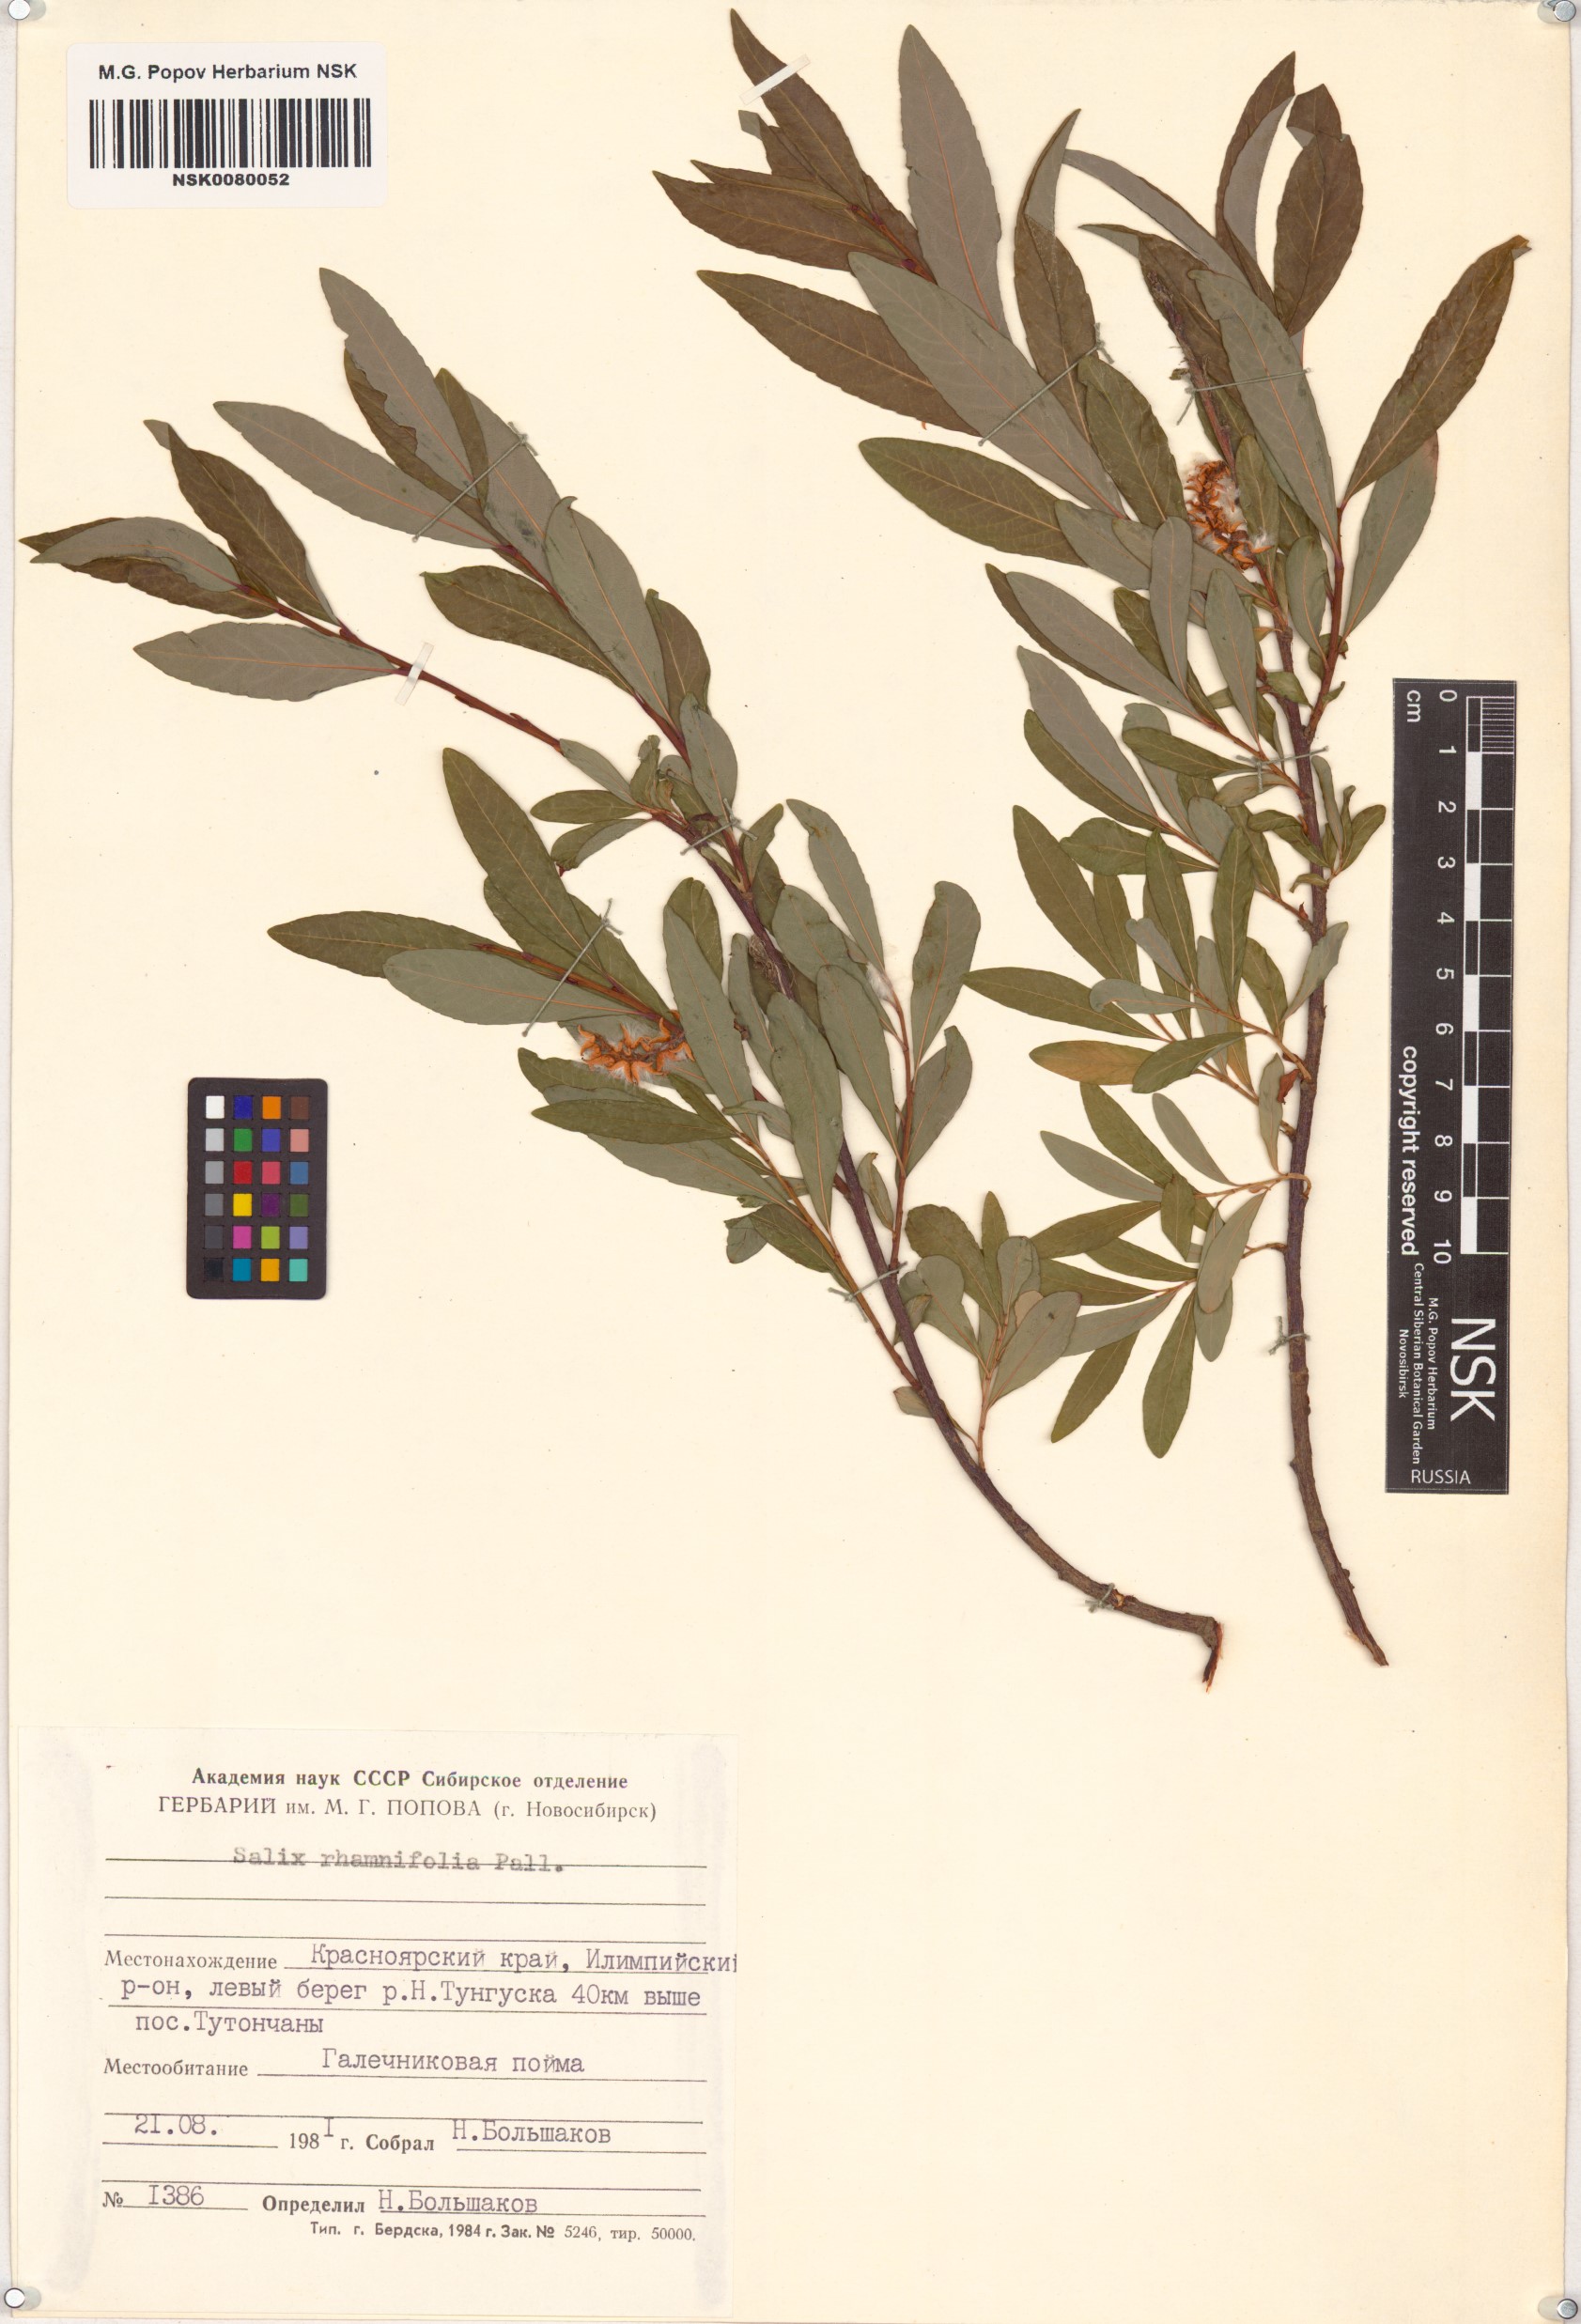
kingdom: Plantae
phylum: Tracheophyta
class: Magnoliopsida
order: Malpighiales
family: Salicaceae
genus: Salix
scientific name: Salix rhamnifolia
